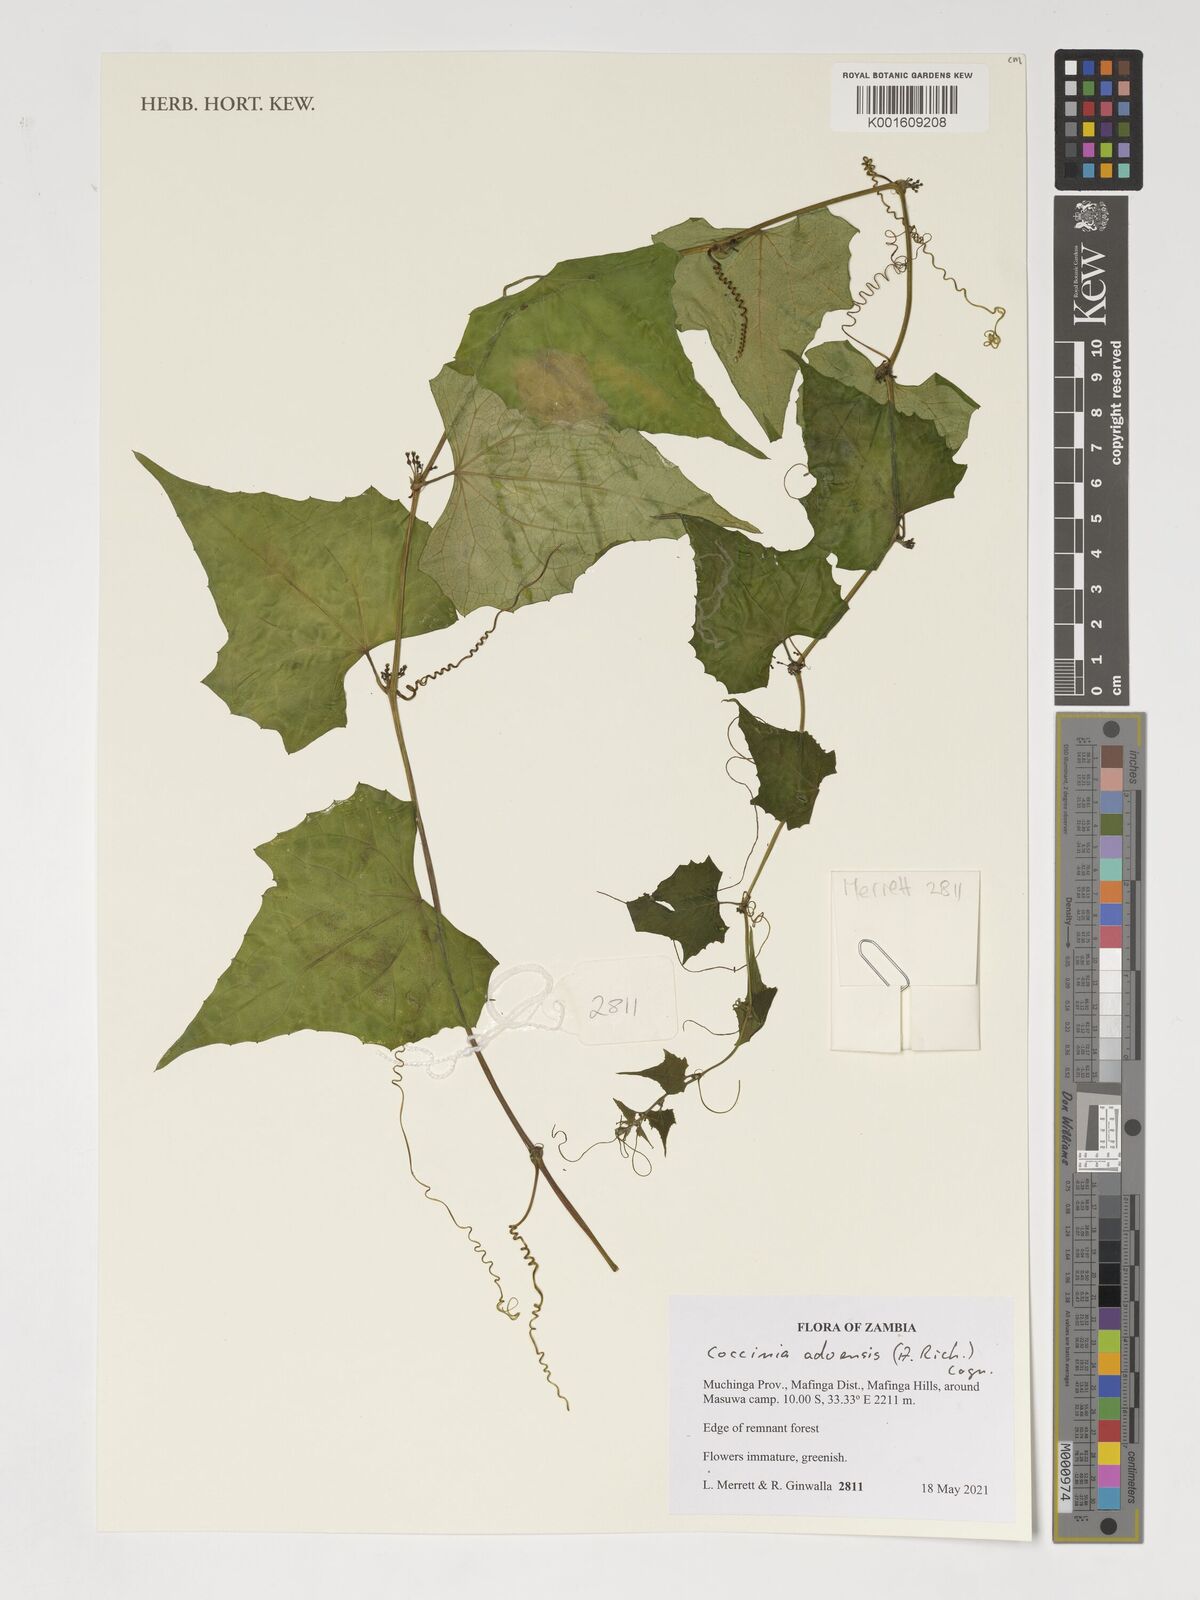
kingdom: Plantae
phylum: Tracheophyta
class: Magnoliopsida
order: Cucurbitales
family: Cucurbitaceae
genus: Coccinia
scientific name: Coccinia adoensis
